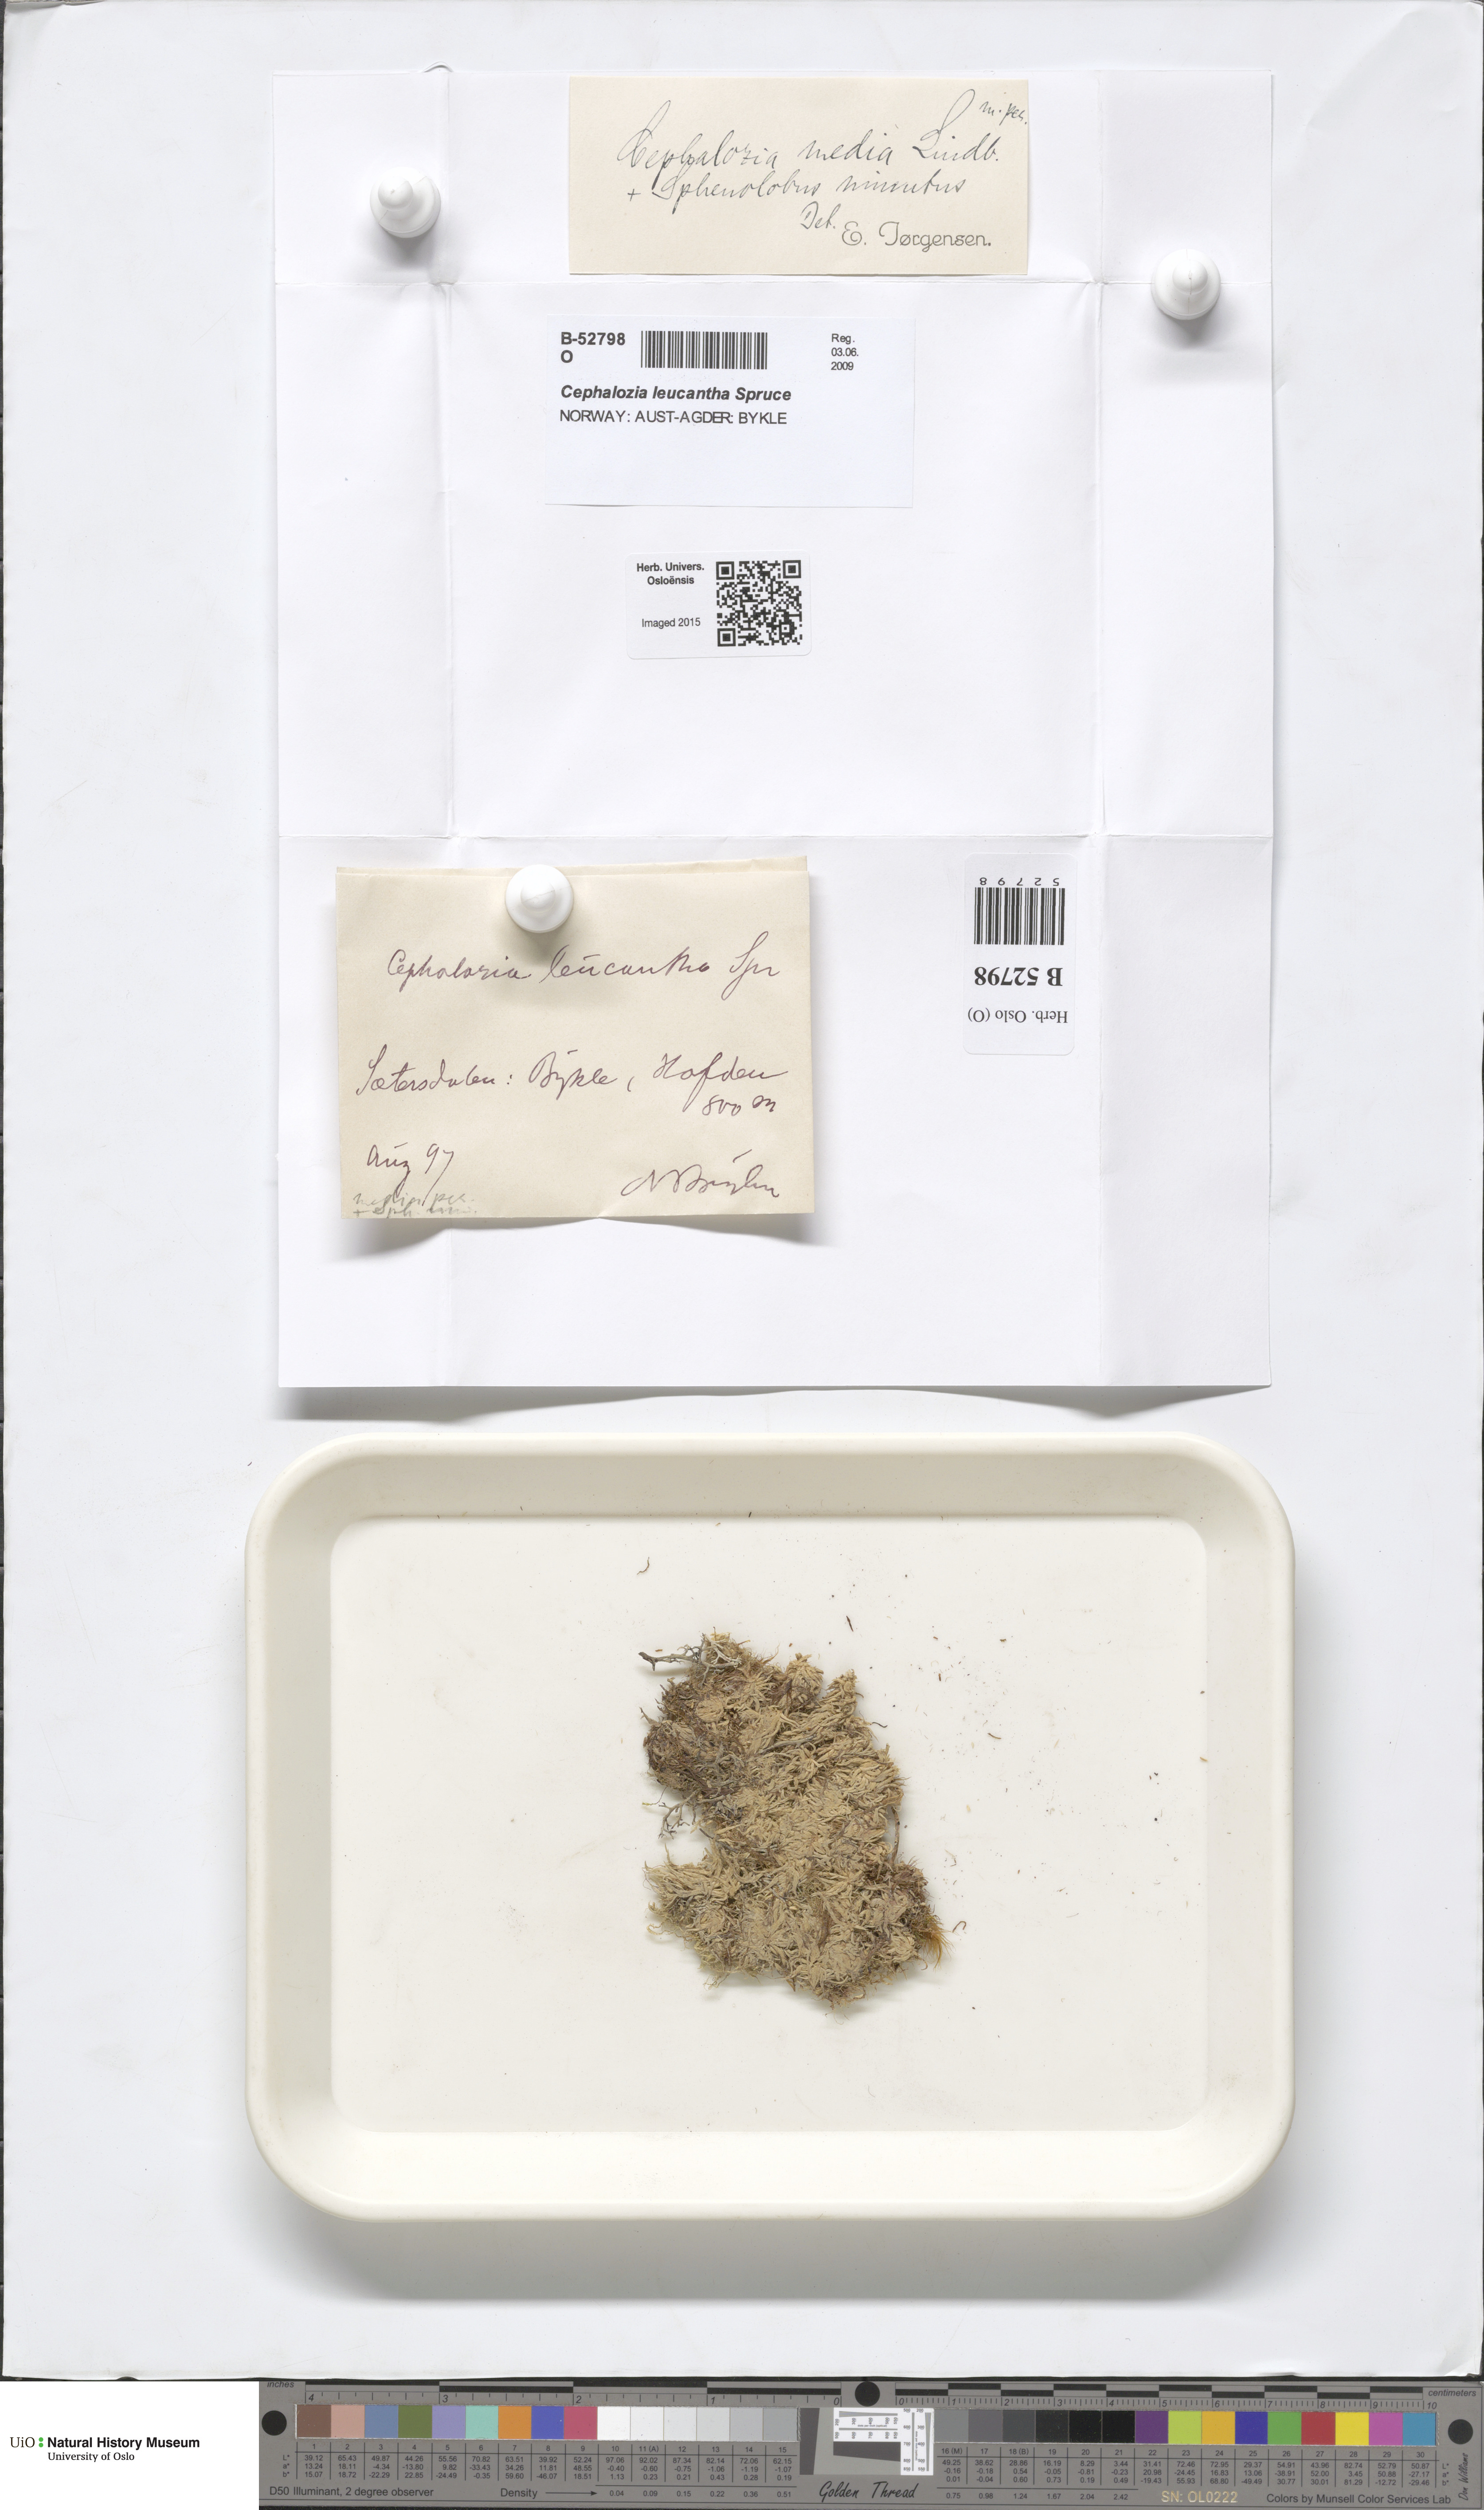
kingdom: Plantae
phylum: Marchantiophyta
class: Jungermanniopsida
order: Jungermanniales
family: Cephaloziaceae
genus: Fuscocephaloziopsis
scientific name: Fuscocephaloziopsis lunulifolia
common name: Moon-leaved pincerwort
